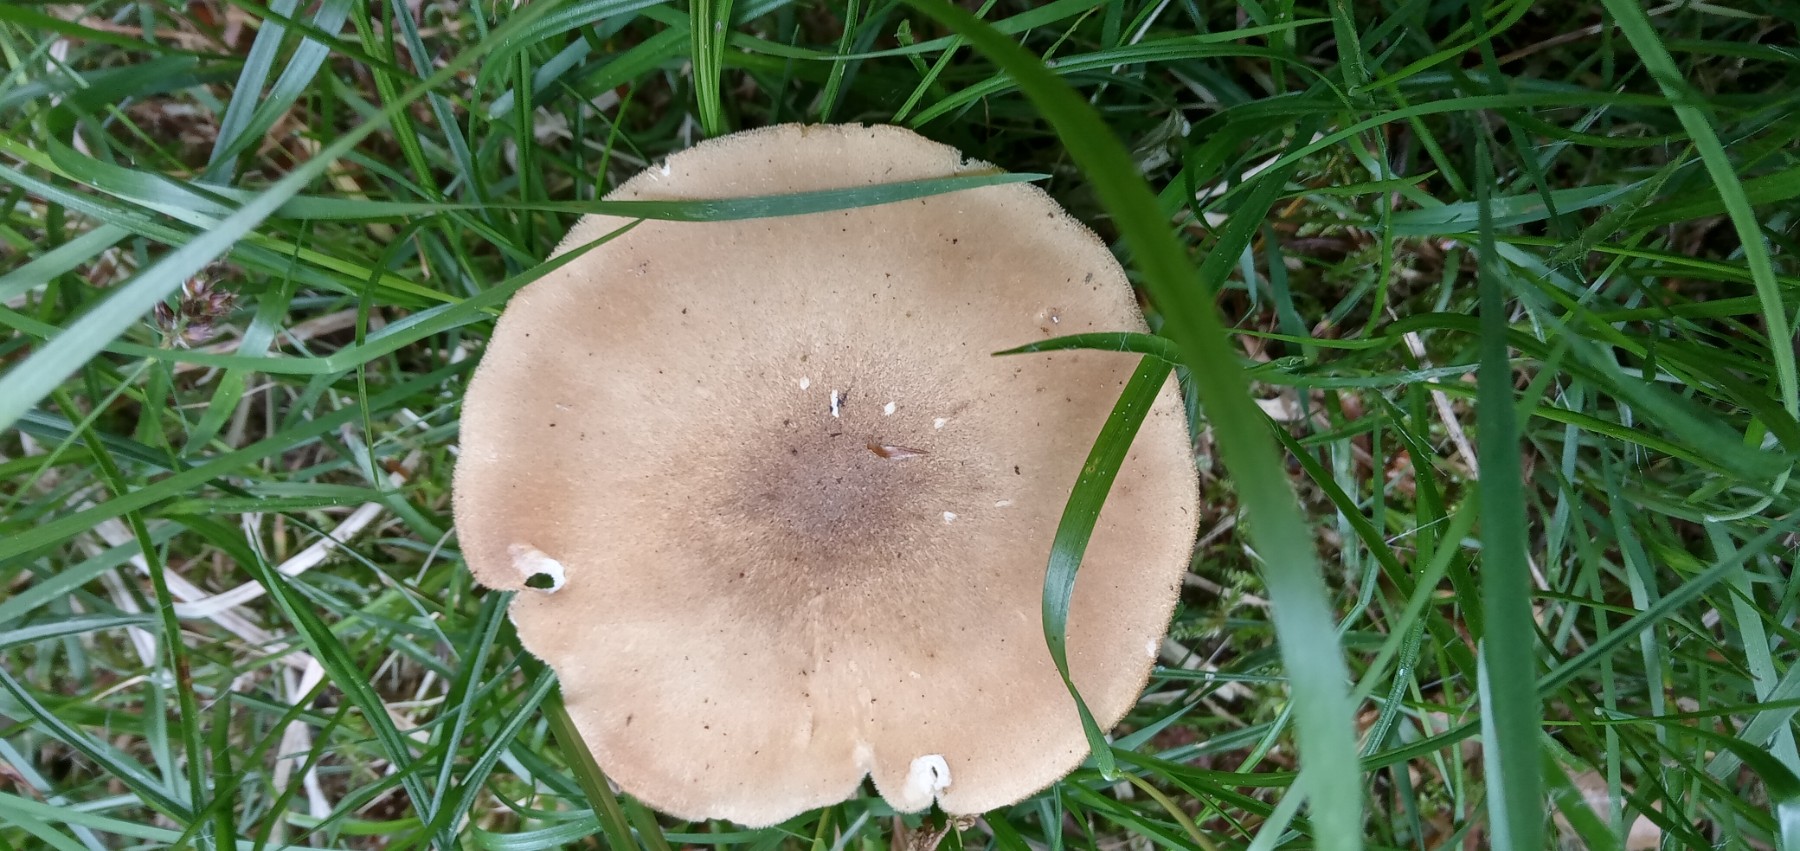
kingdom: Fungi
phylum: Basidiomycota
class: Agaricomycetes
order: Polyporales
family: Polyporaceae
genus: Lentinus
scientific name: Lentinus substrictus
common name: forårs-stilkporesvamp
